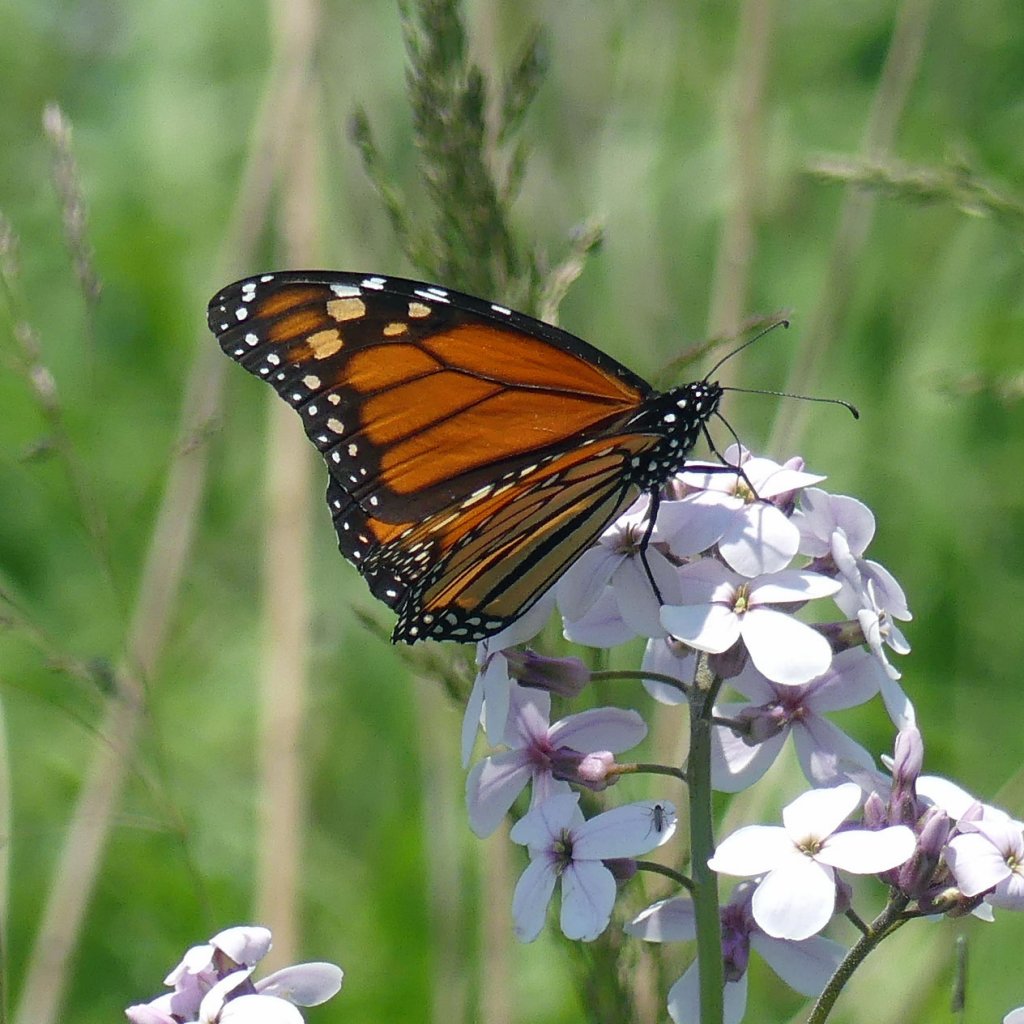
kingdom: Animalia
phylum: Arthropoda
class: Insecta
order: Lepidoptera
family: Nymphalidae
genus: Danaus
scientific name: Danaus plexippus
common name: Monarch
